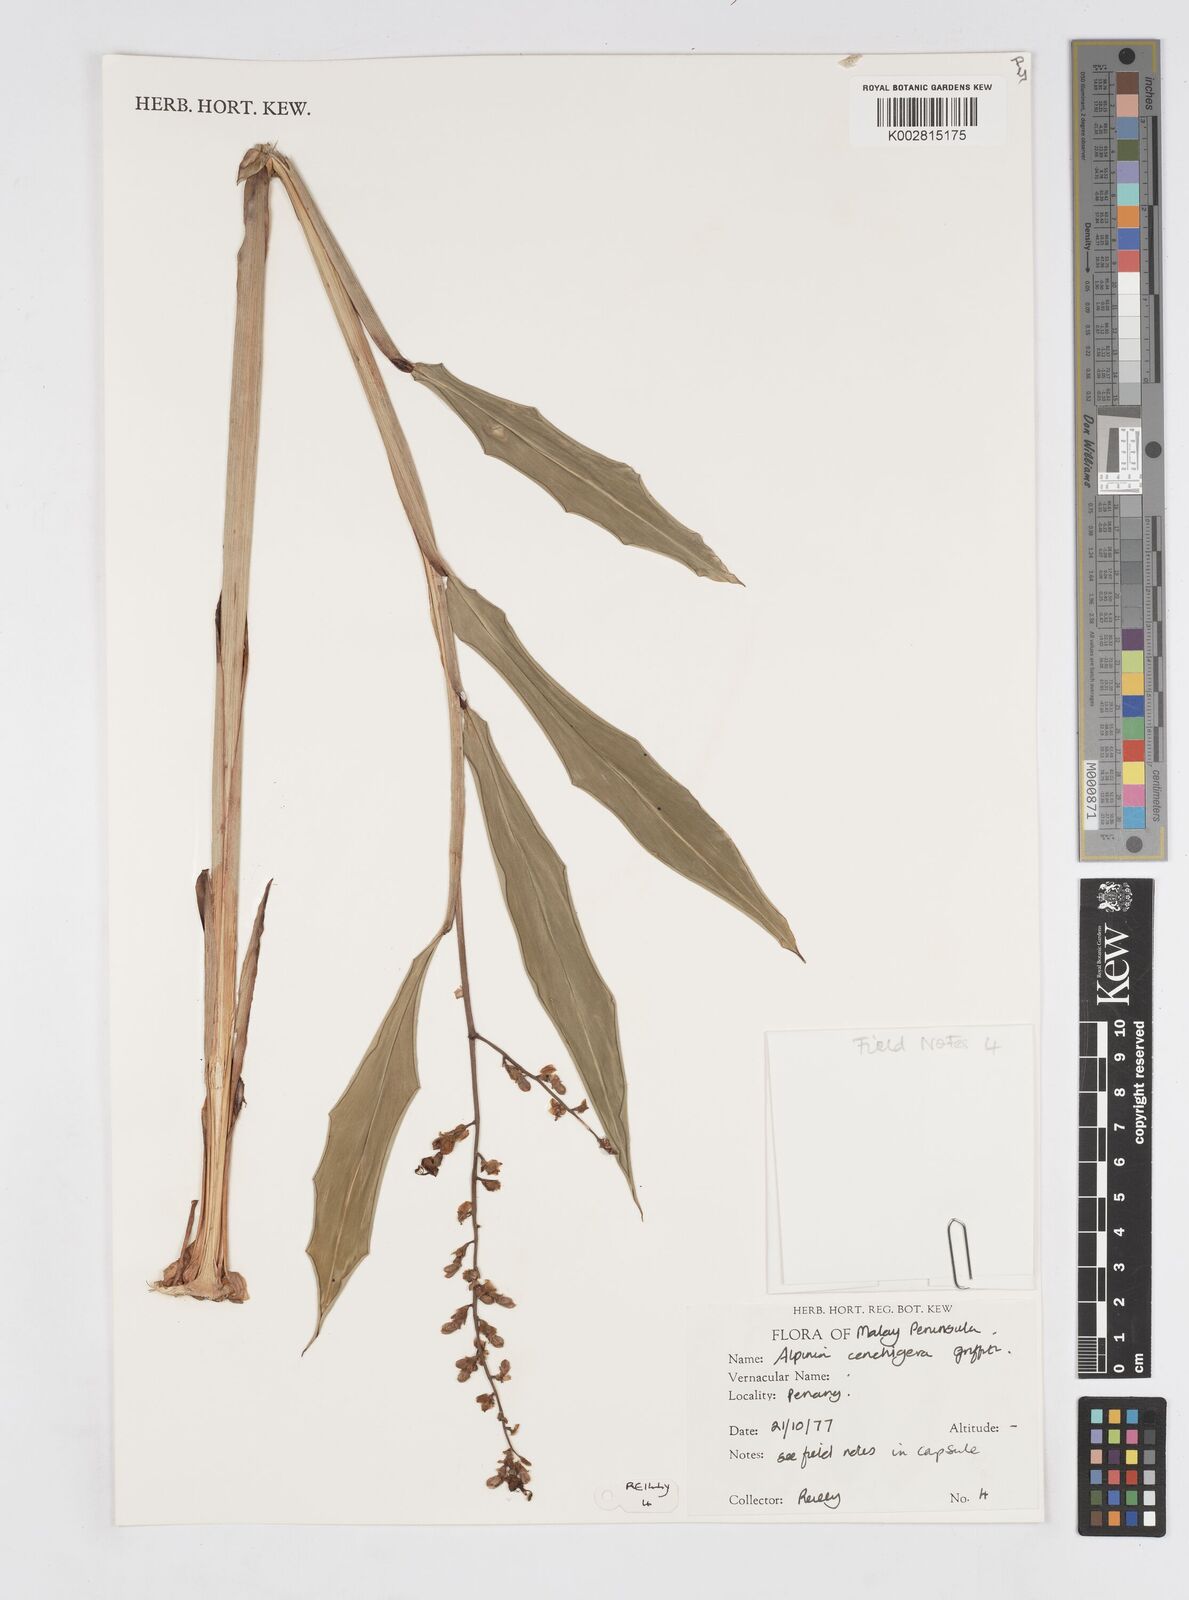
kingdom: Plantae
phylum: Tracheophyta
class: Liliopsida
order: Zingiberales
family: Zingiberaceae
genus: Alpinia
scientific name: Alpinia conchigera
